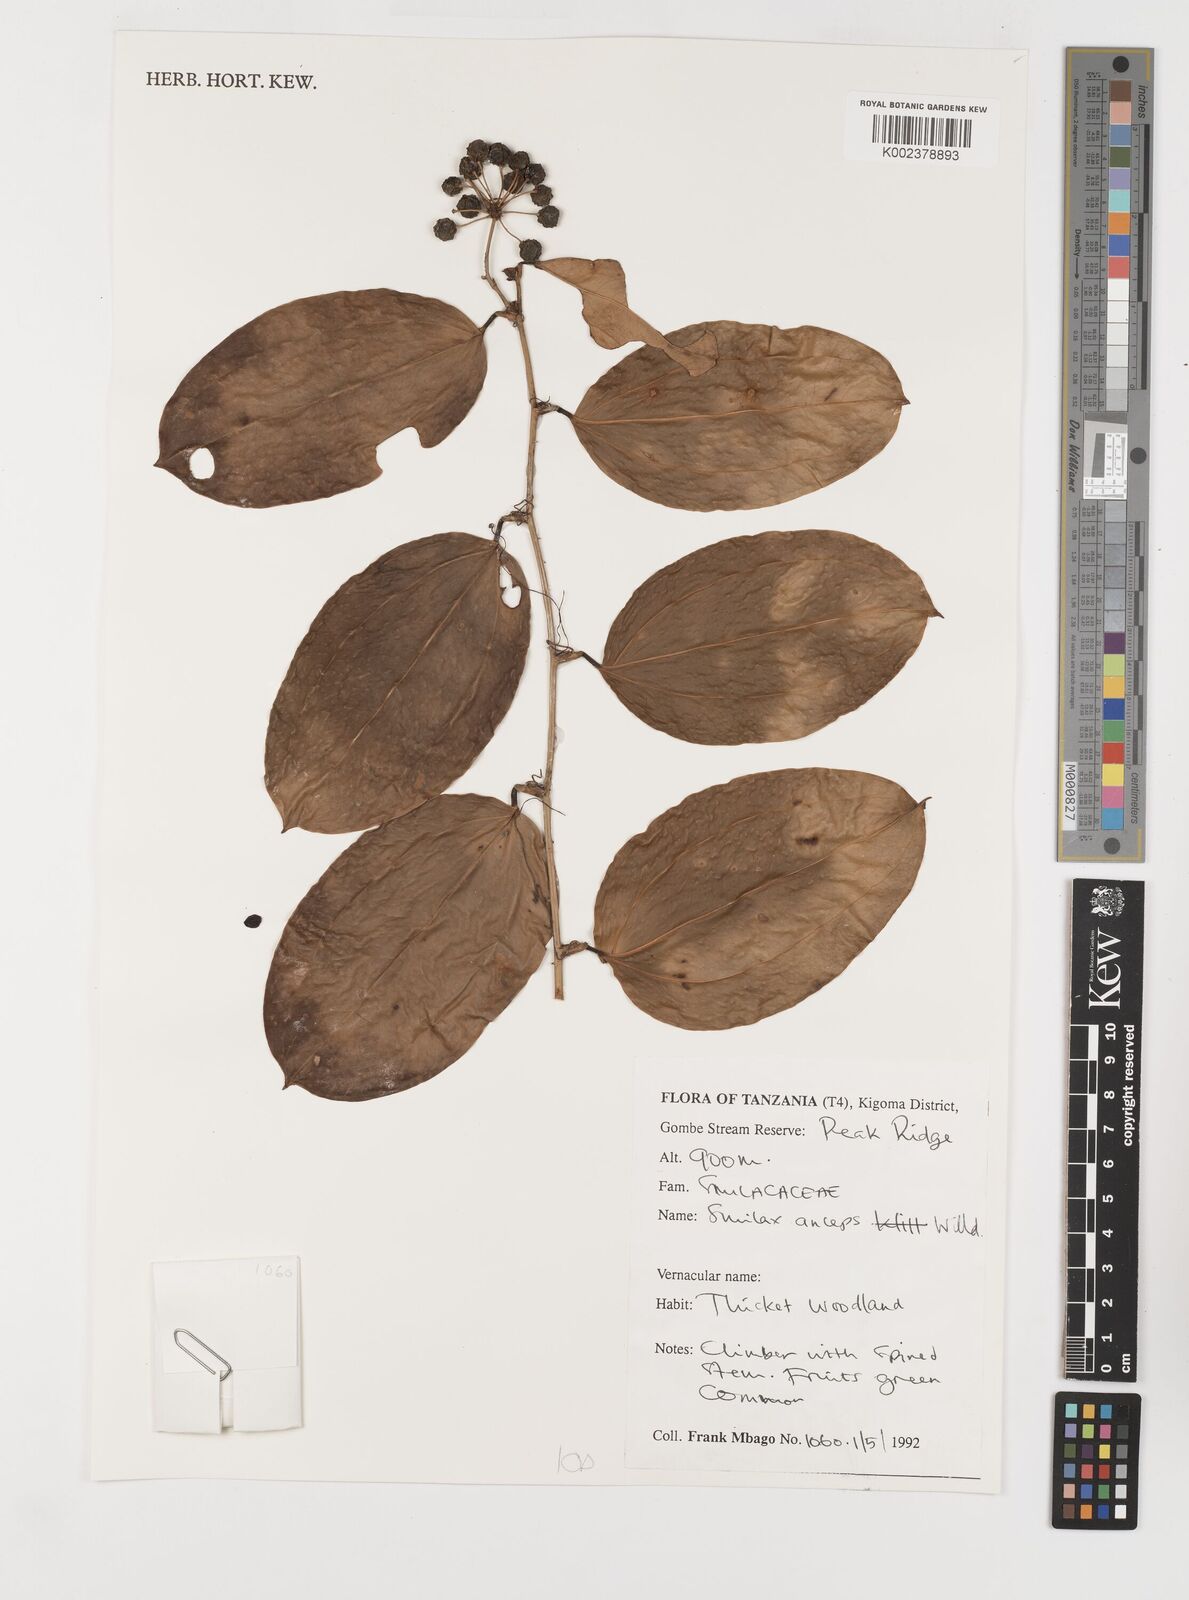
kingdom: Plantae
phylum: Tracheophyta
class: Liliopsida
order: Liliales
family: Smilacaceae
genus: Smilax
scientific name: Smilax anceps
